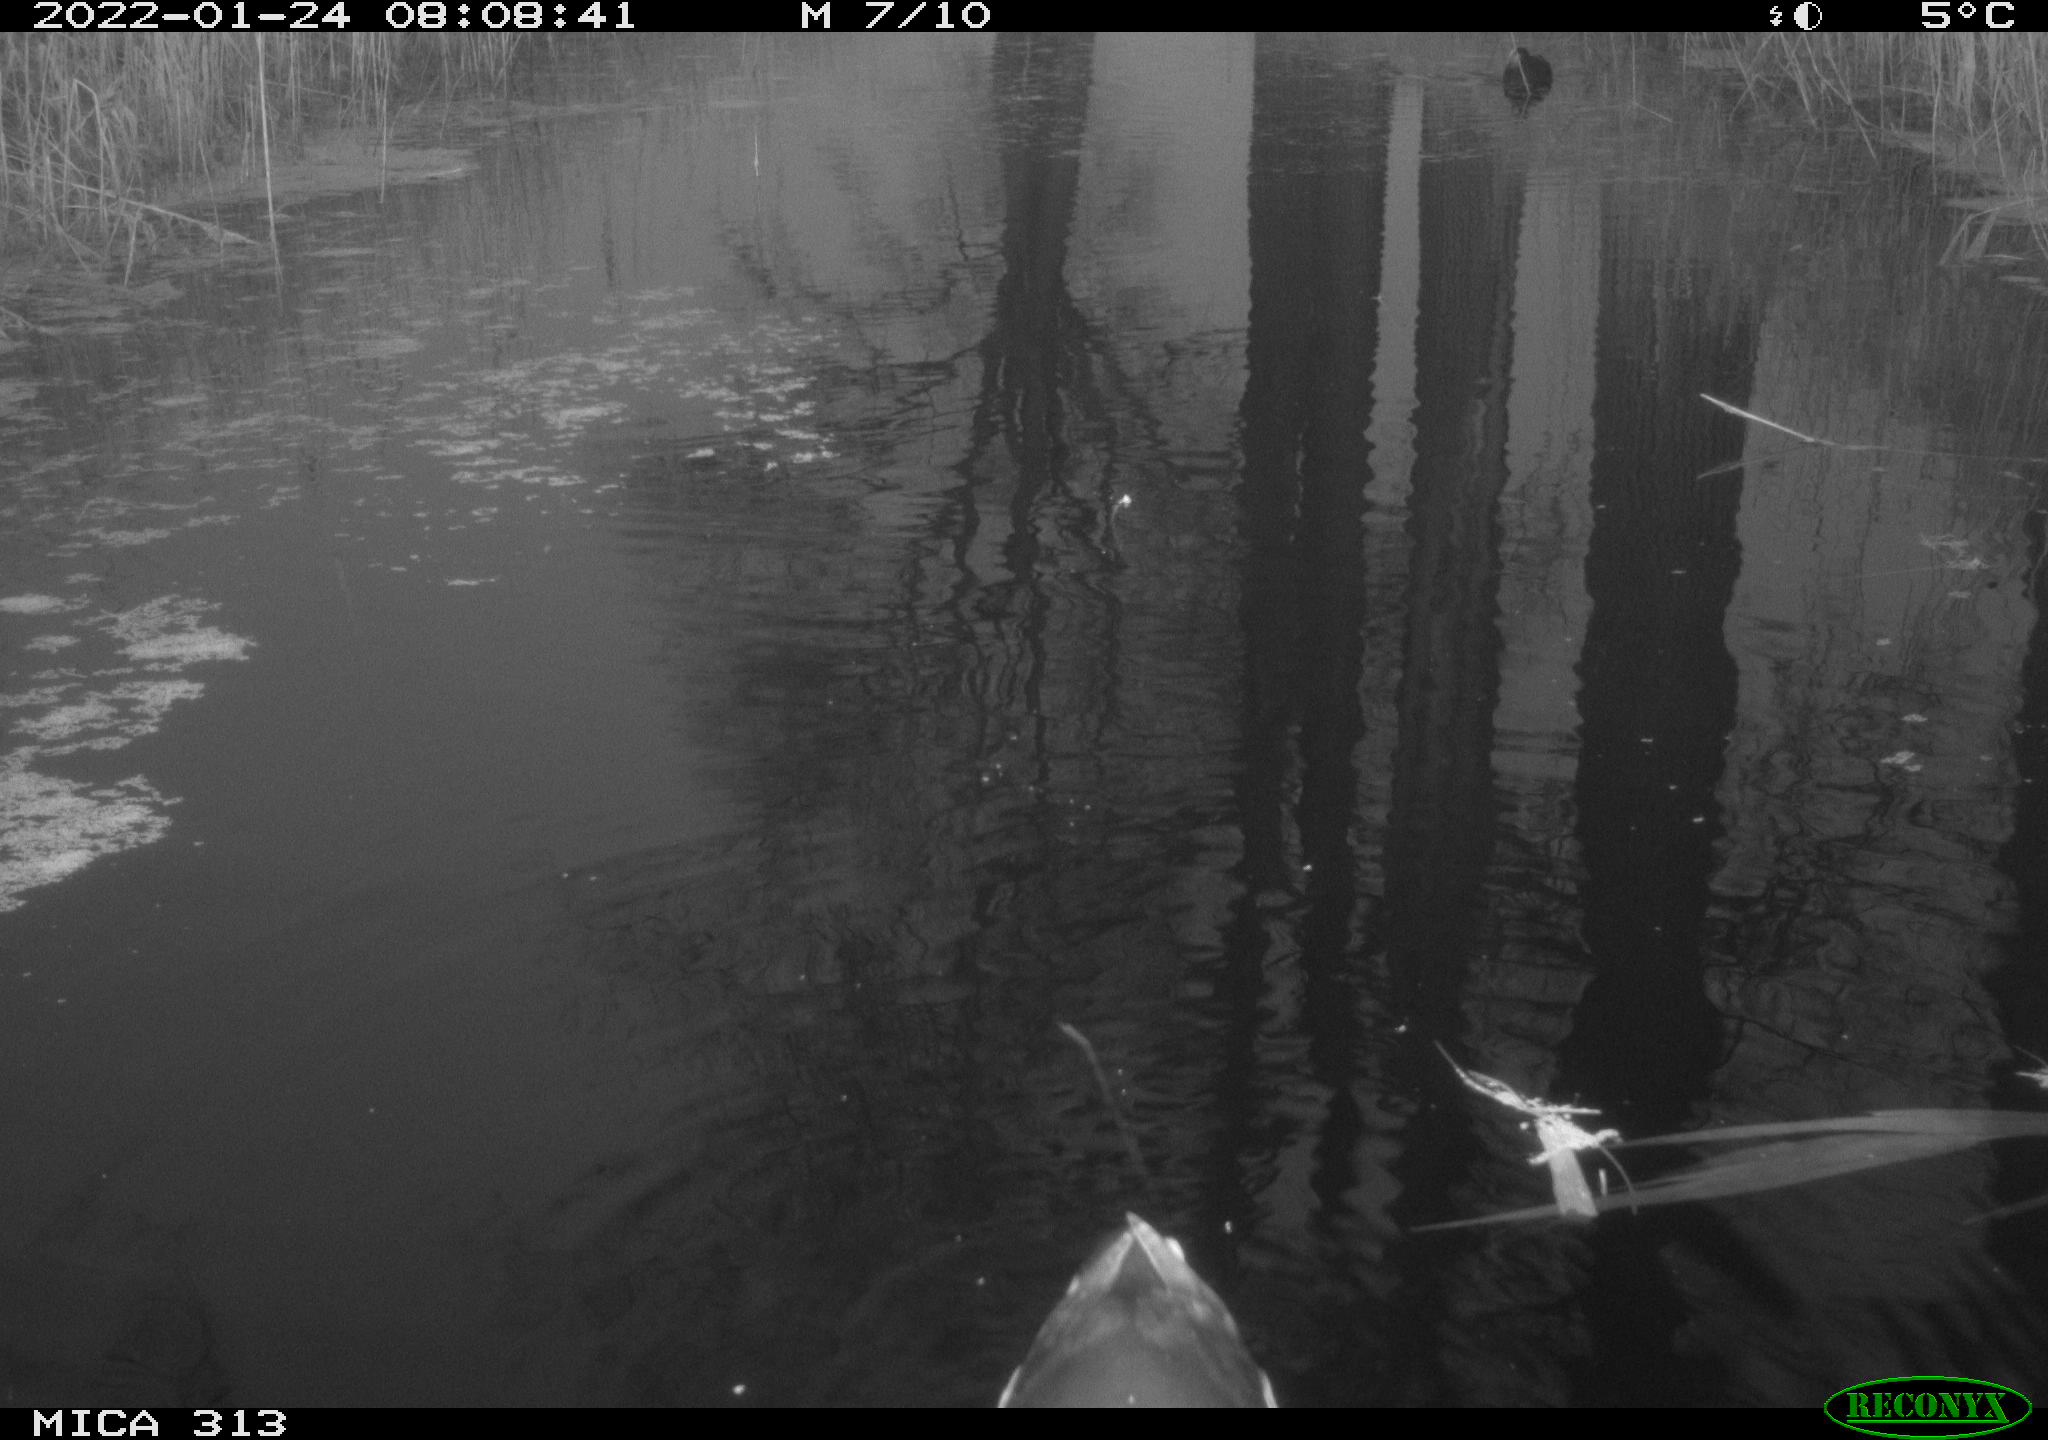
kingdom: Animalia
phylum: Chordata
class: Aves
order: Anseriformes
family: Anatidae
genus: Anas
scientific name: Anas
